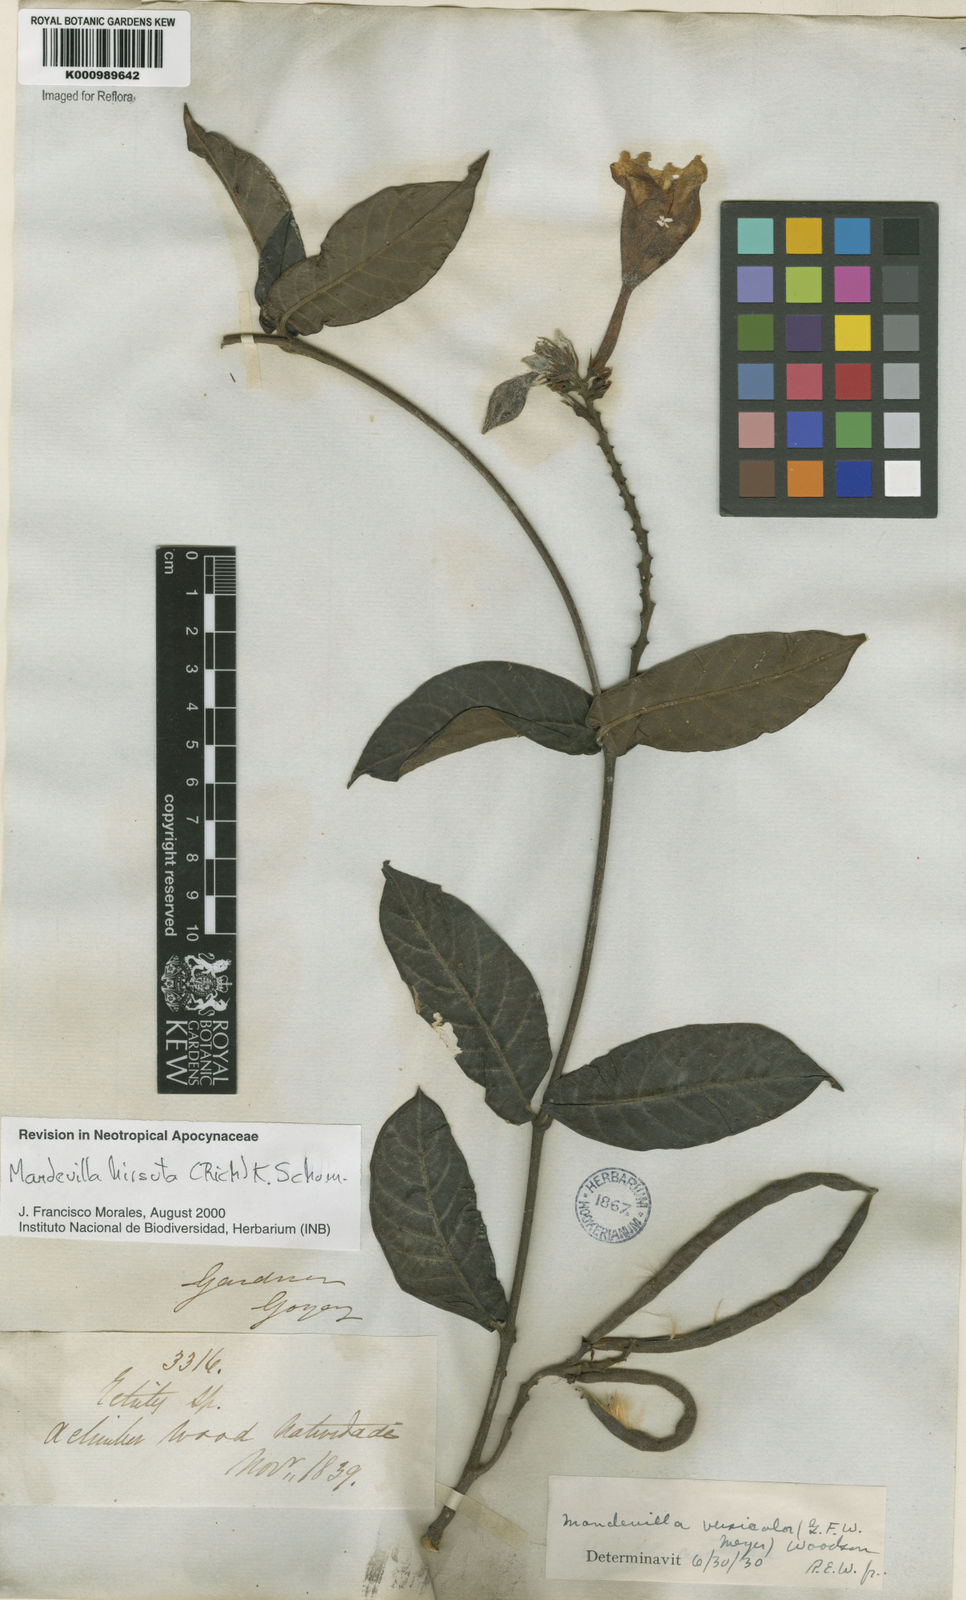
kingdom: Plantae
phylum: Tracheophyta
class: Magnoliopsida
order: Gentianales
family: Apocynaceae
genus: Mandevilla
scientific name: Mandevilla hirsuta
